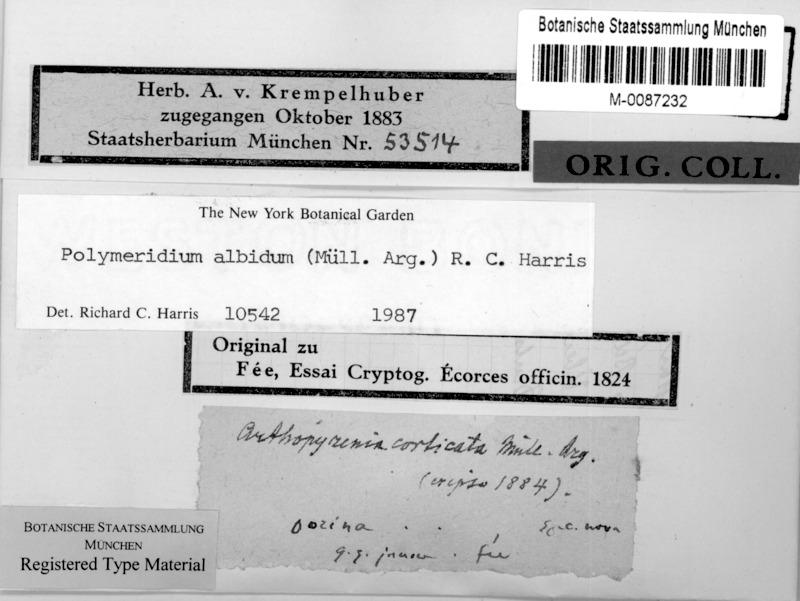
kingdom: Fungi
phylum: Ascomycota
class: Dothideomycetes
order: Trypetheliales
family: Trypetheliaceae
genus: Polymeridium
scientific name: Polymeridium albidum
